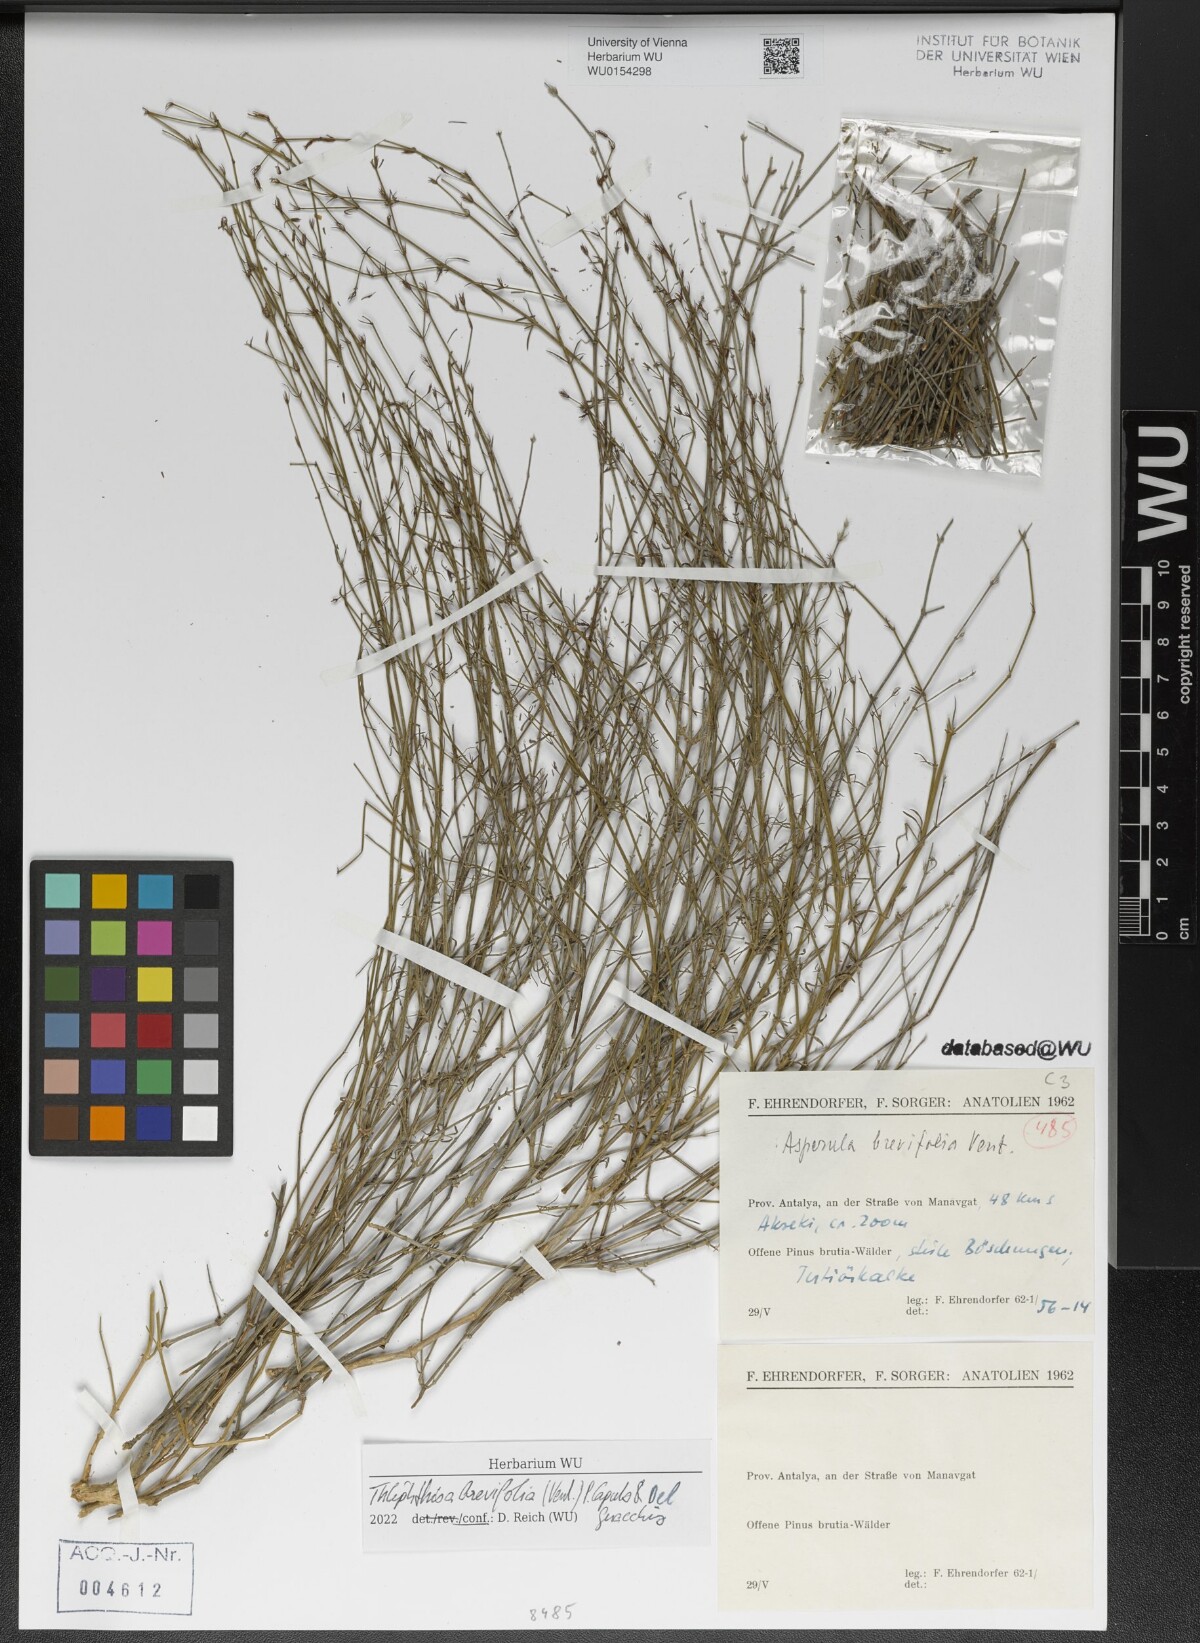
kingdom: Plantae
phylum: Tracheophyta
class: Magnoliopsida
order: Gentianales
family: Rubiaceae
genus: Thliphthisa
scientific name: Thliphthisa brevifolia
